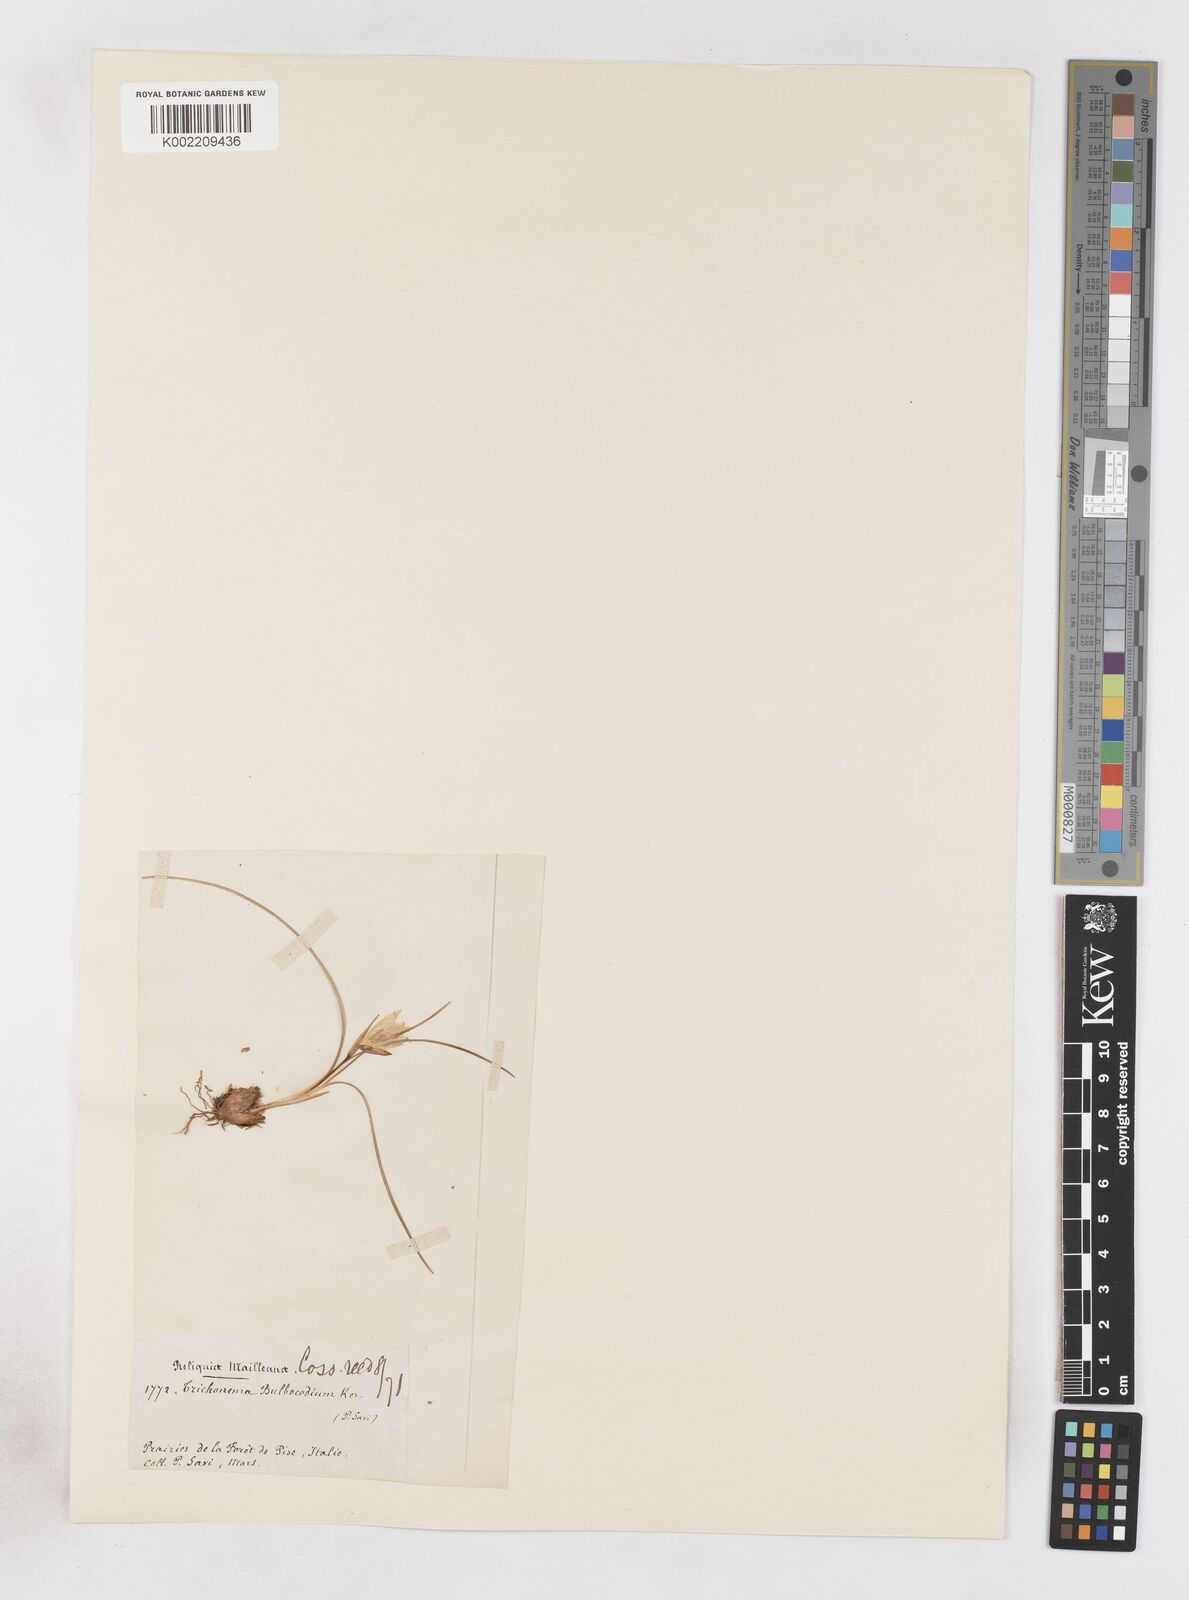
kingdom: Plantae
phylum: Tracheophyta
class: Liliopsida
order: Asparagales
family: Iridaceae
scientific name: Iridaceae
